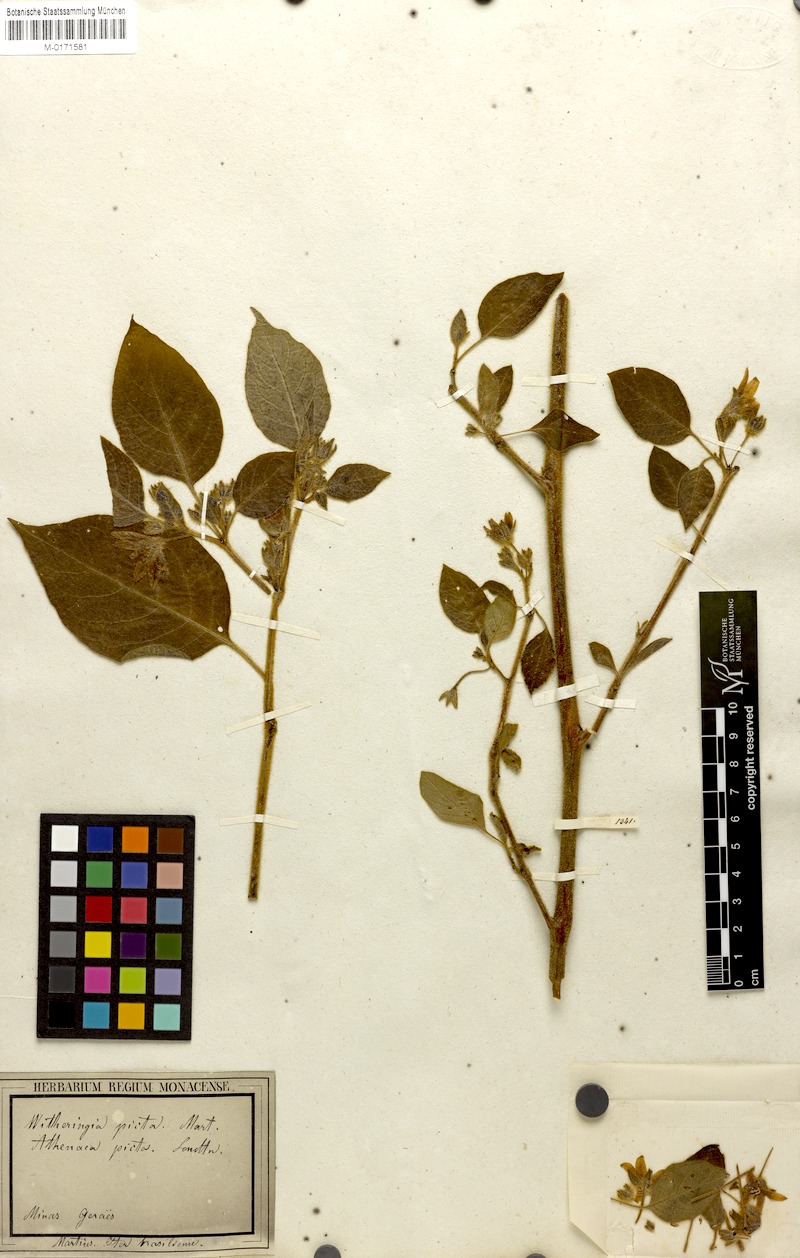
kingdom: Plantae
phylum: Tracheophyta
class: Magnoliopsida
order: Solanales
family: Solanaceae
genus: Athenaea
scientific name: Athenaea picta
